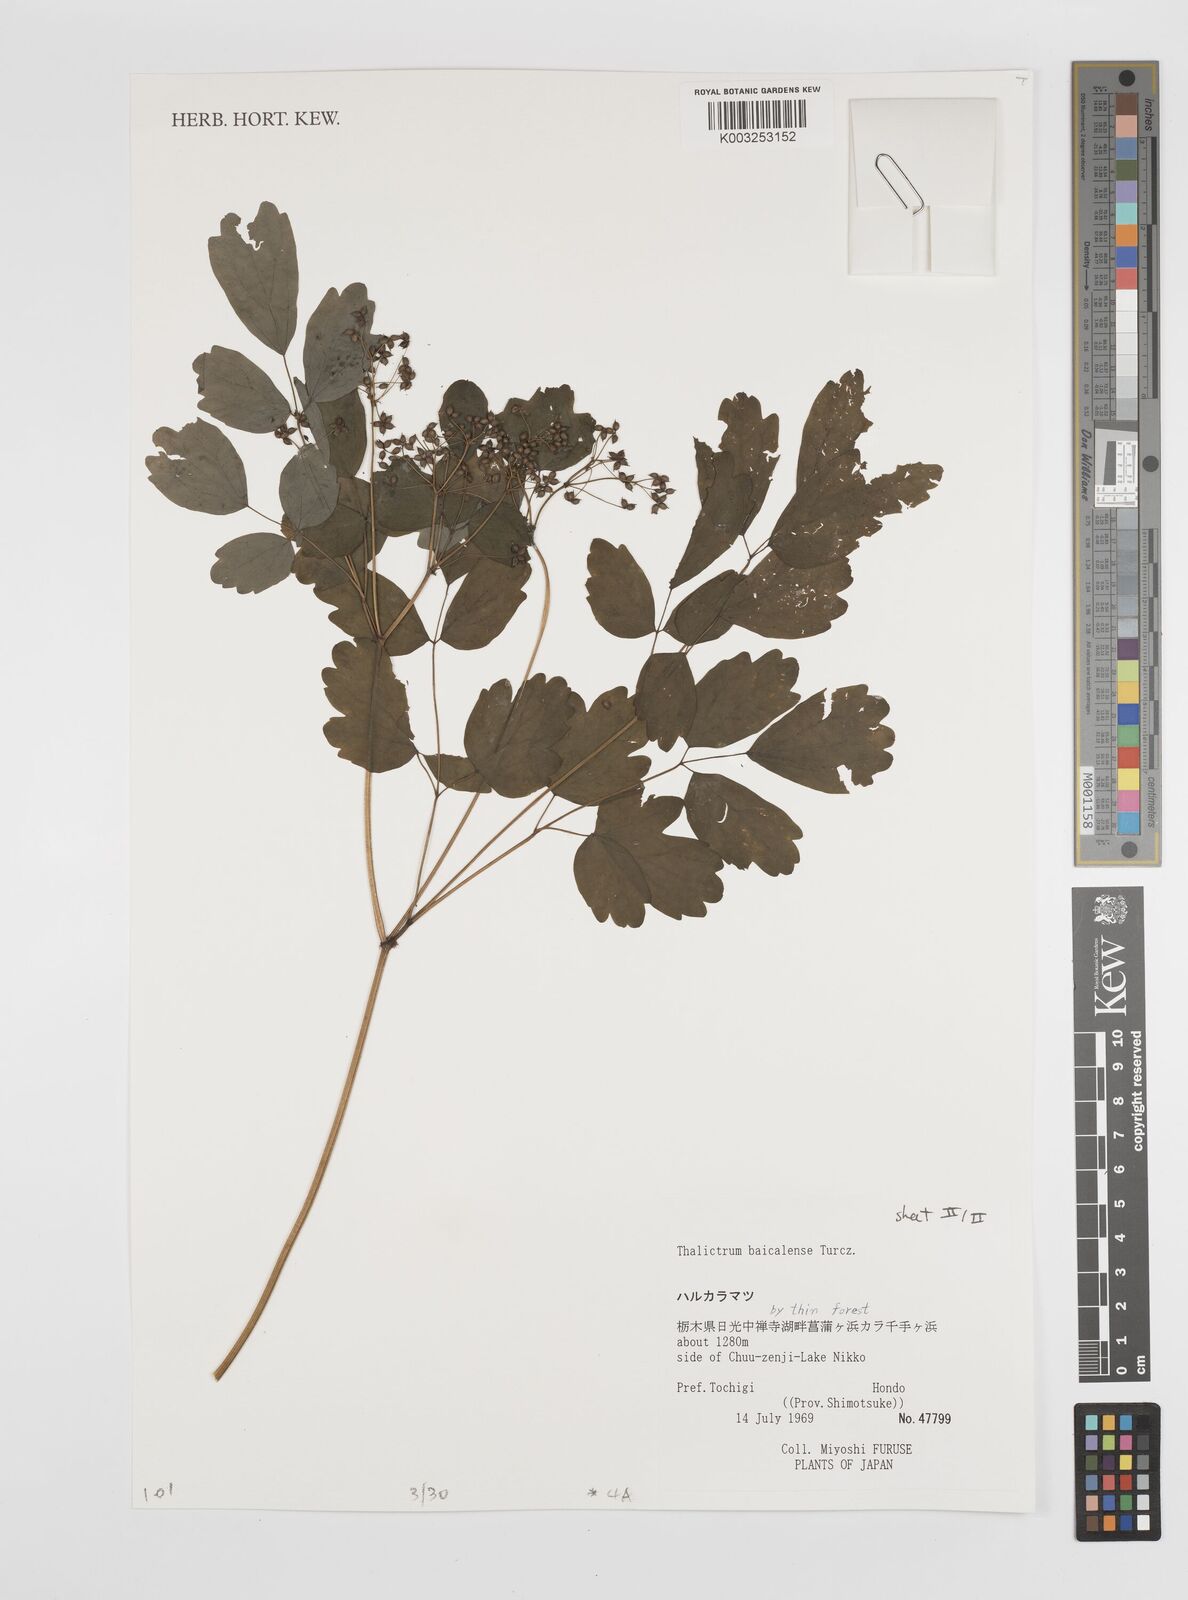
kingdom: Plantae
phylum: Tracheophyta
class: Magnoliopsida
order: Ranunculales
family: Ranunculaceae
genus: Thalictrum
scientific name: Thalictrum baicalense
